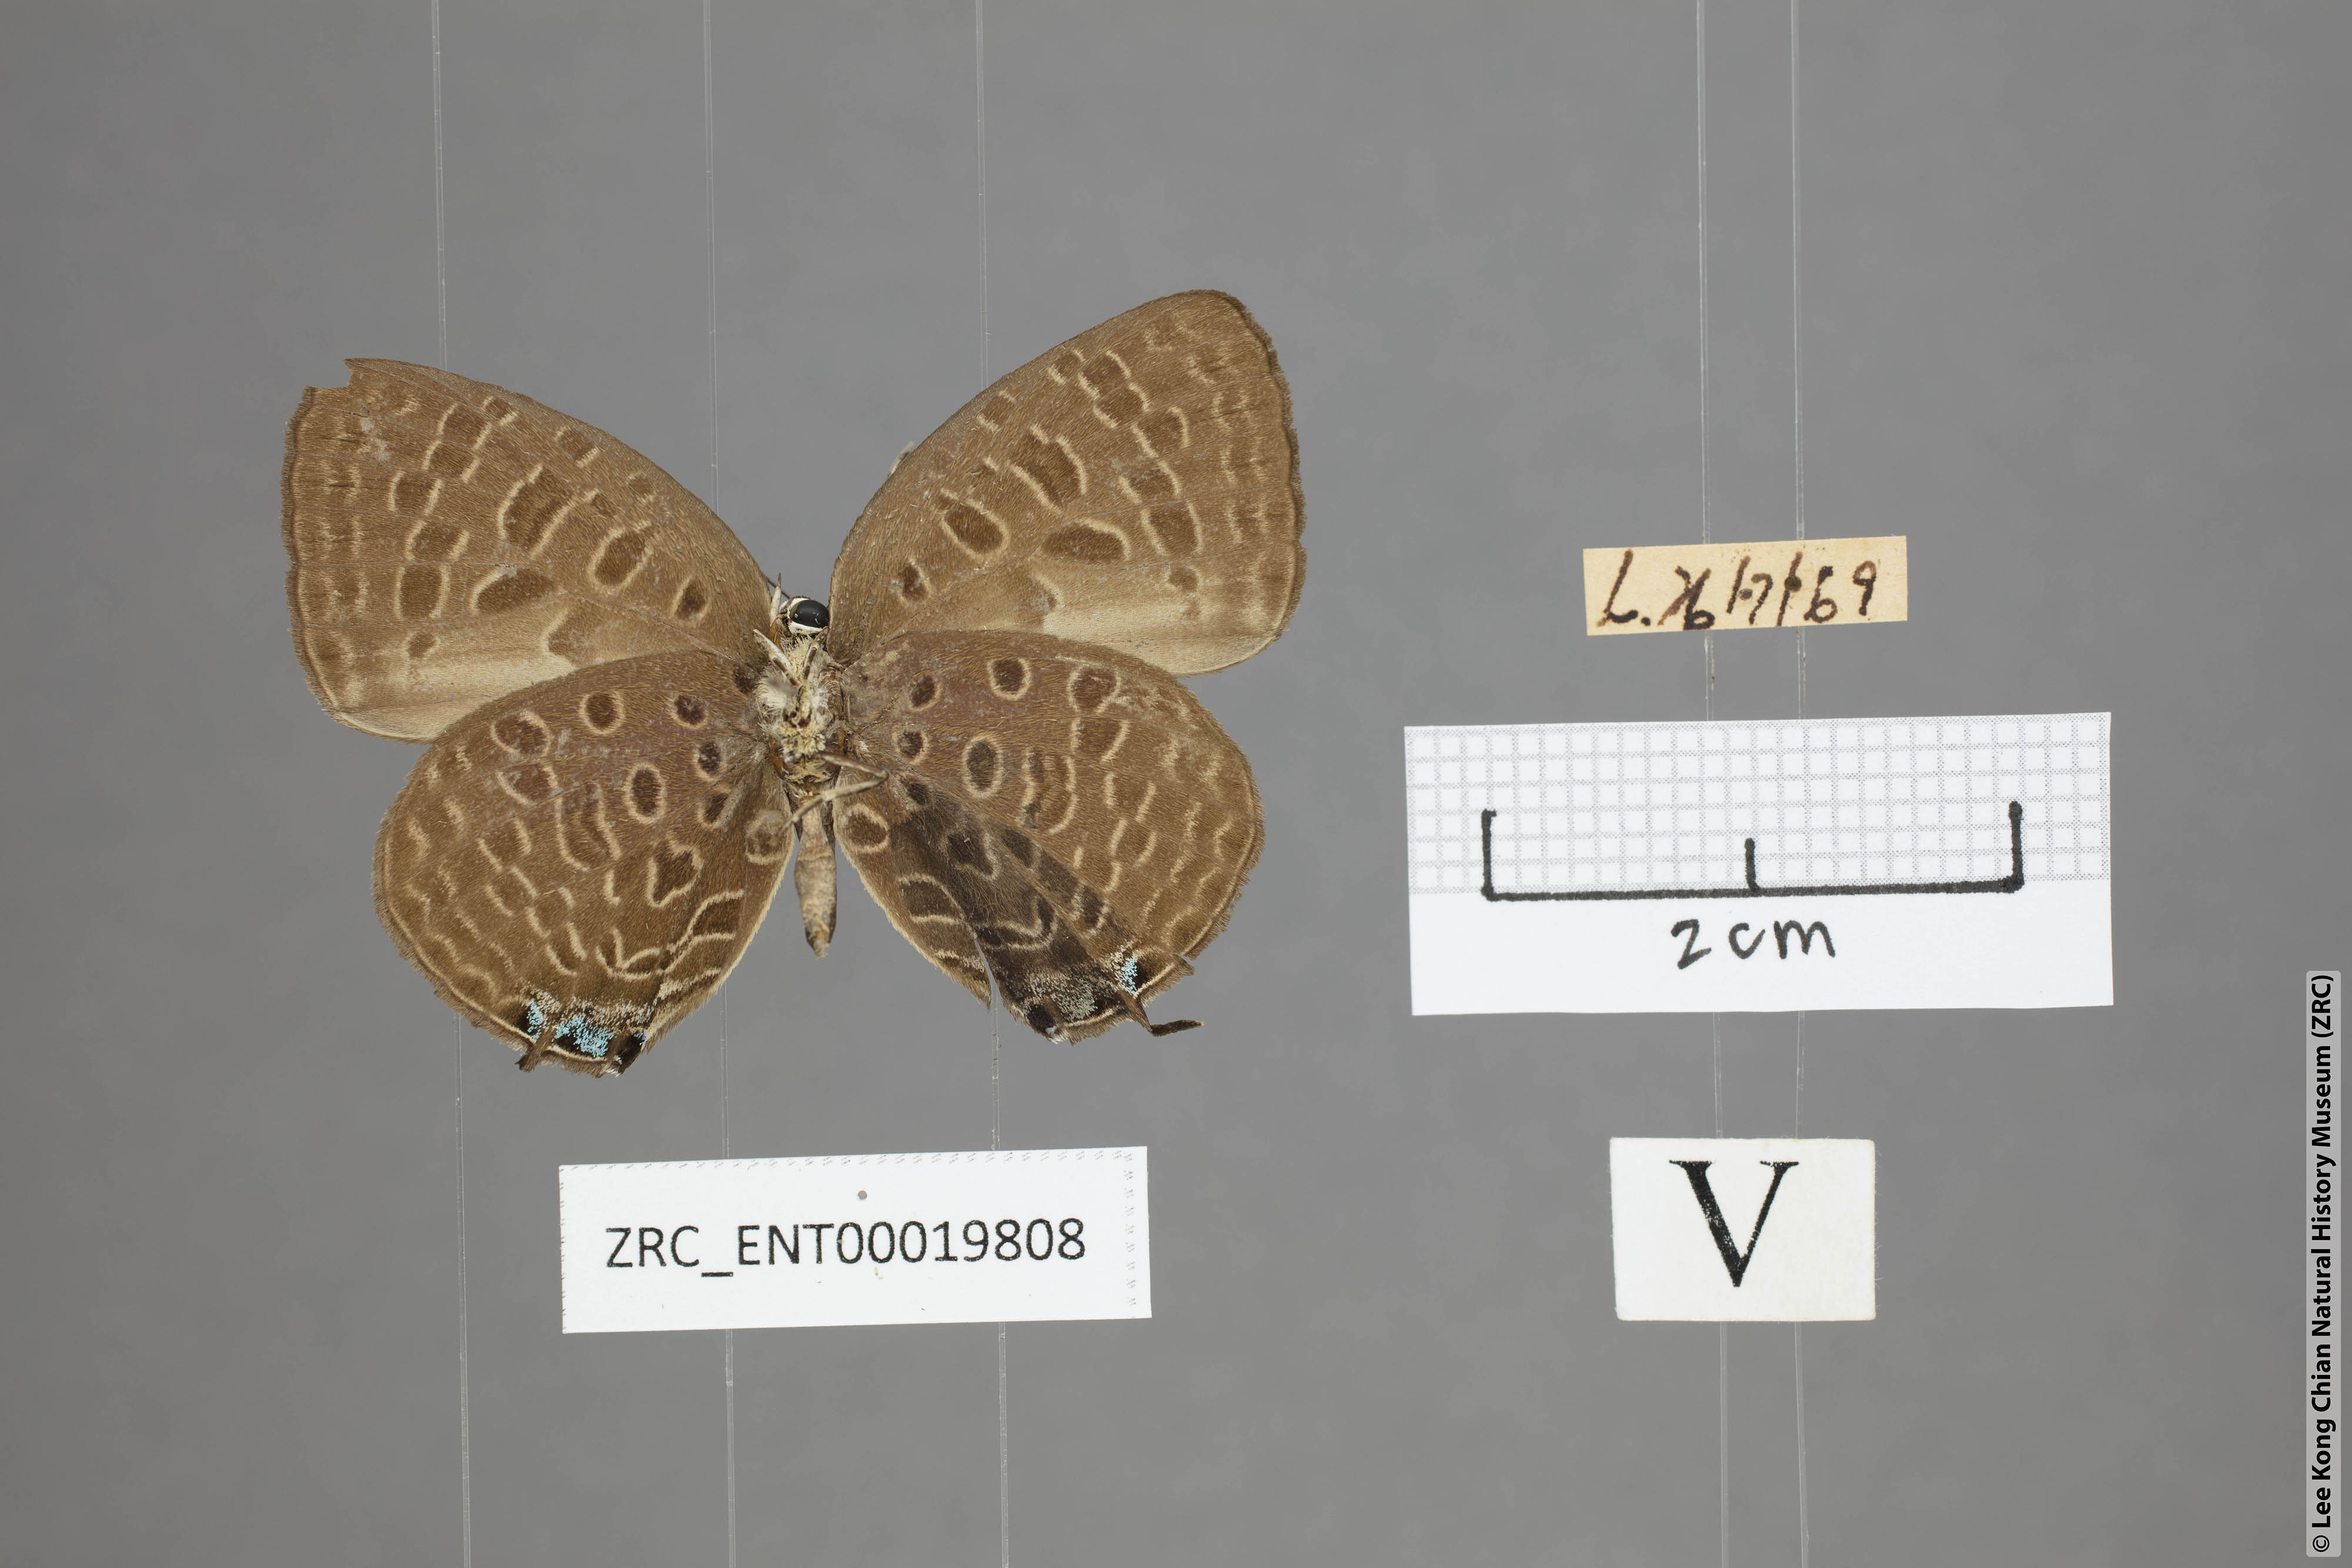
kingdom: Animalia
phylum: Arthropoda
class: Insecta
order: Lepidoptera
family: Lycaenidae
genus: Arhopala
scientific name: Arhopala pseudomuta
